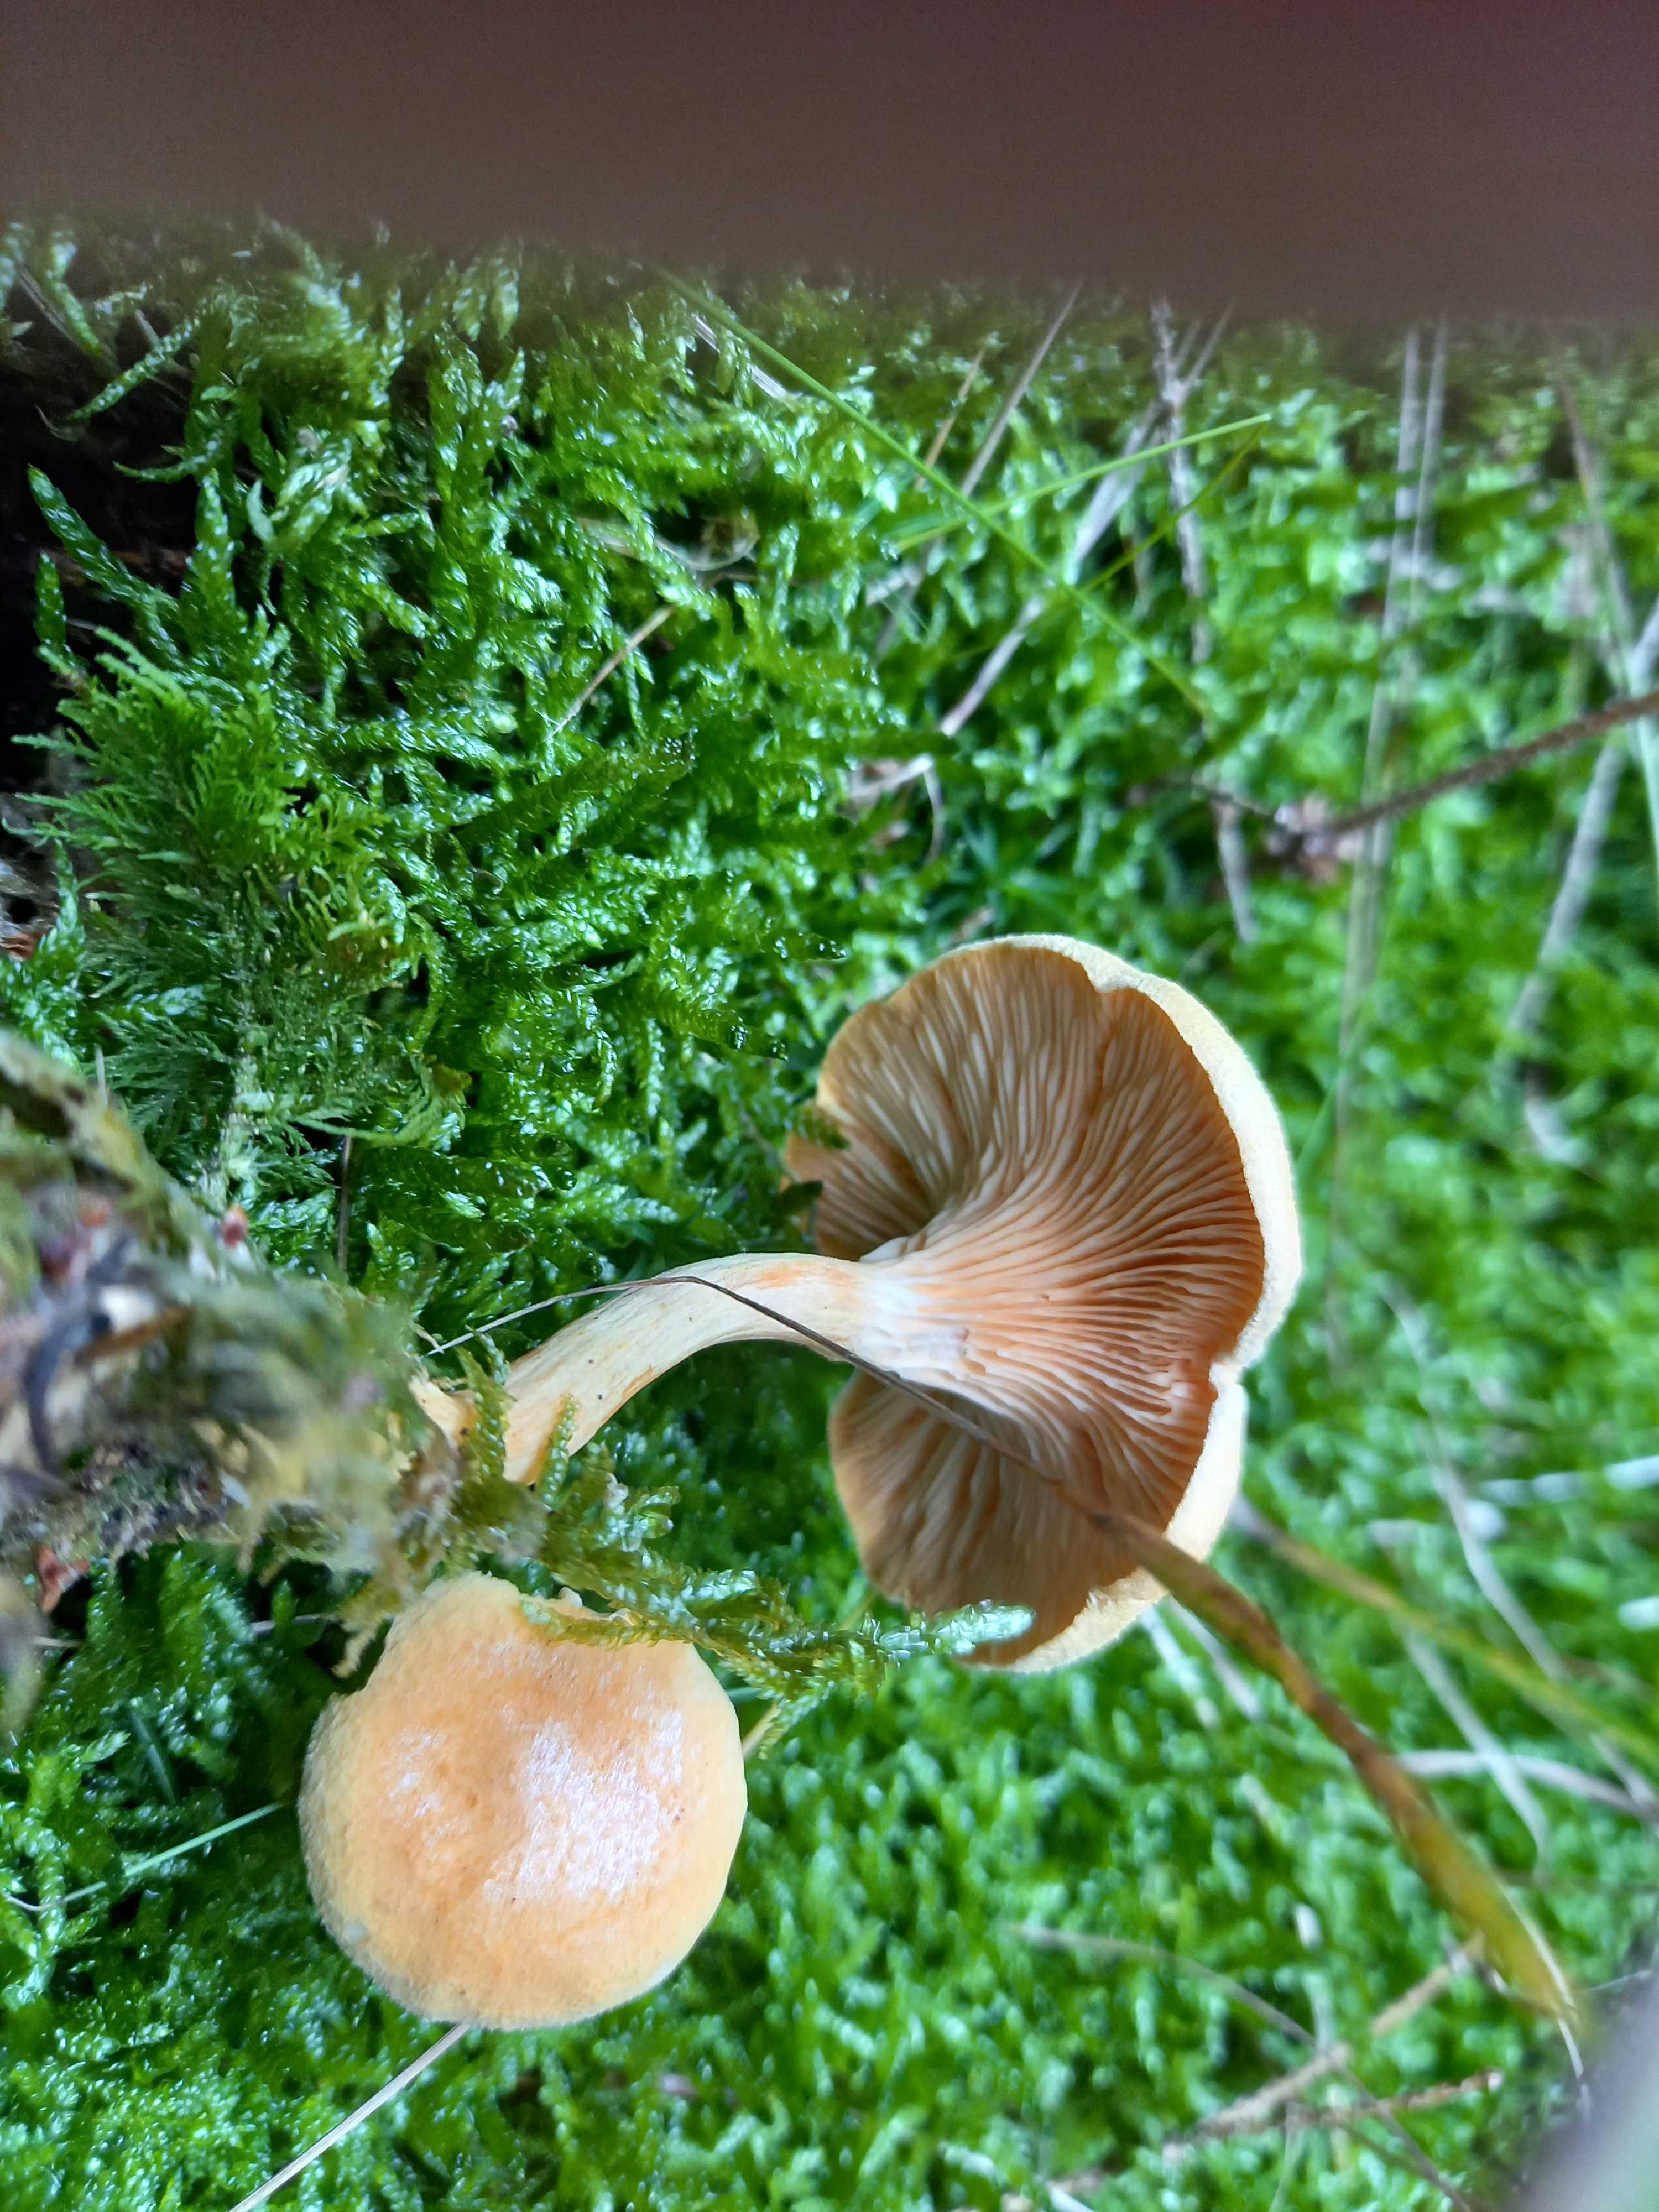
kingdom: Fungi
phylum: Basidiomycota
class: Agaricomycetes
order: Boletales
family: Hygrophoropsidaceae
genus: Hygrophoropsis
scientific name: Hygrophoropsis aurantiaca
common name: almindelig orangekantarel
